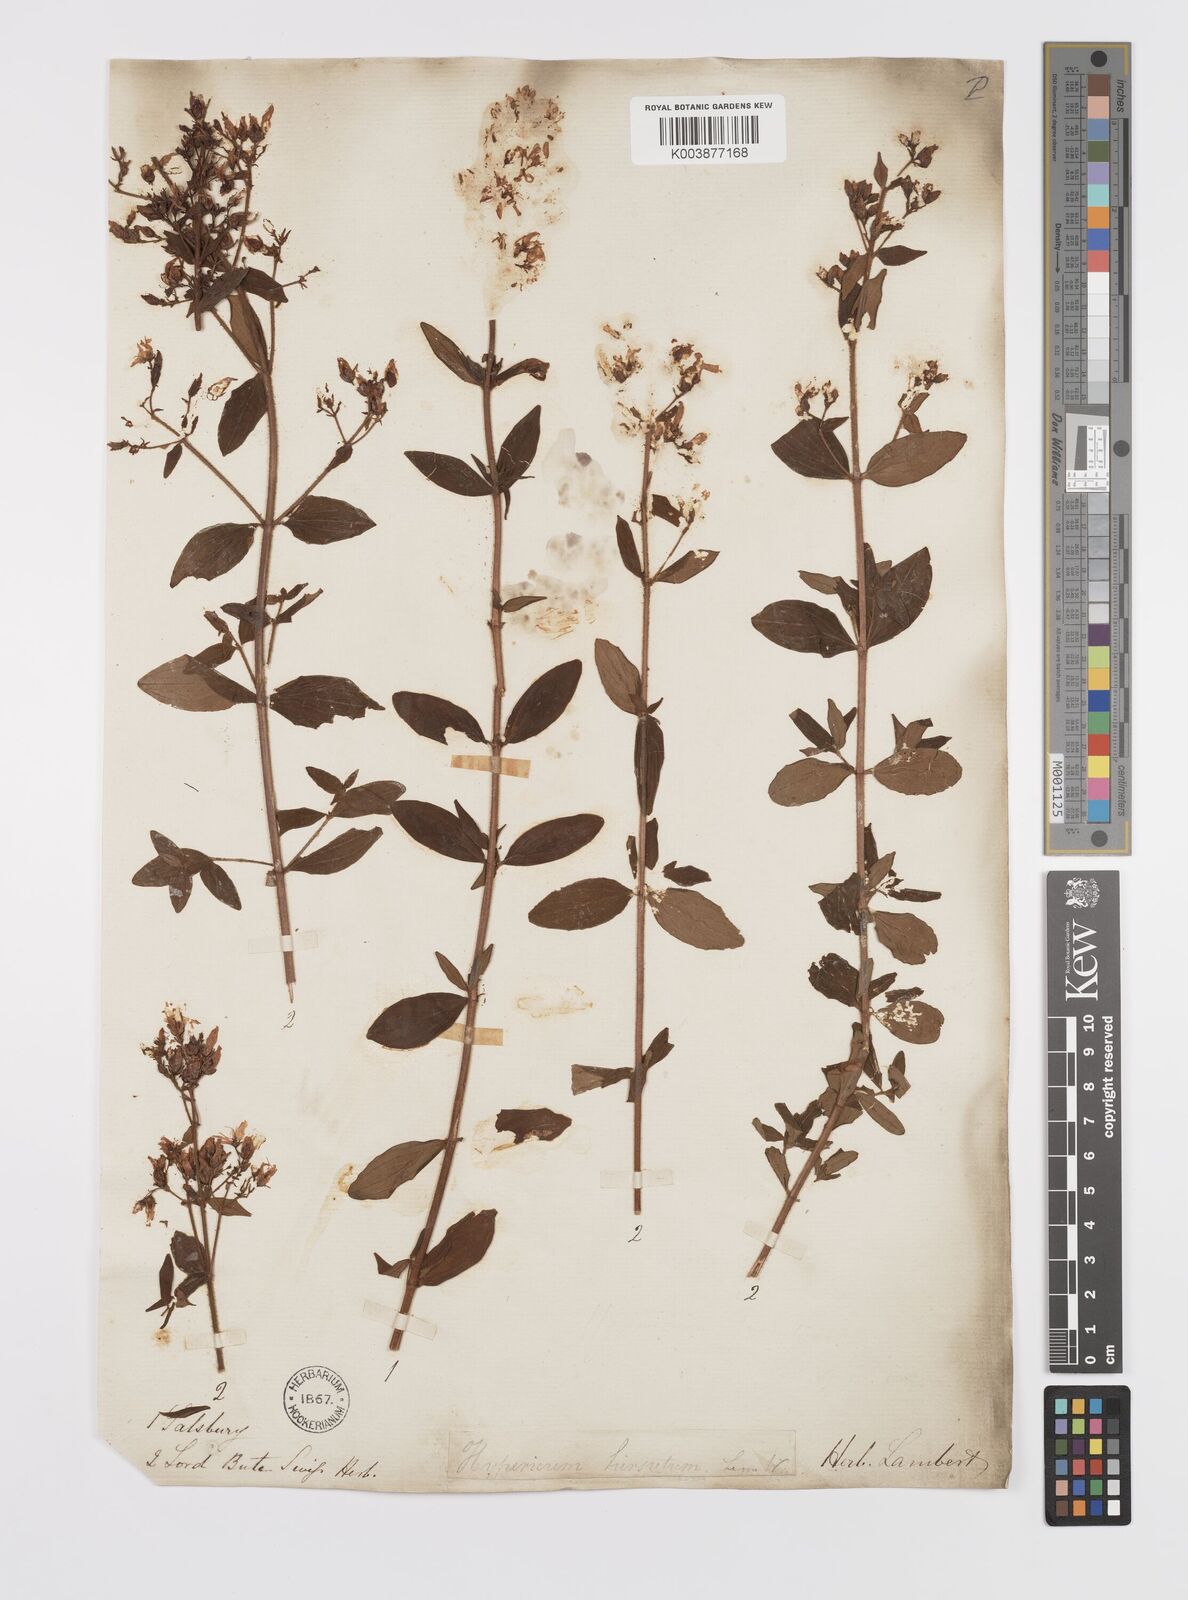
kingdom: Plantae
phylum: Tracheophyta
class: Magnoliopsida
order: Malpighiales
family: Hypericaceae
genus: Hypericum
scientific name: Hypericum hirsutum
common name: Hairy st. john's-wort
